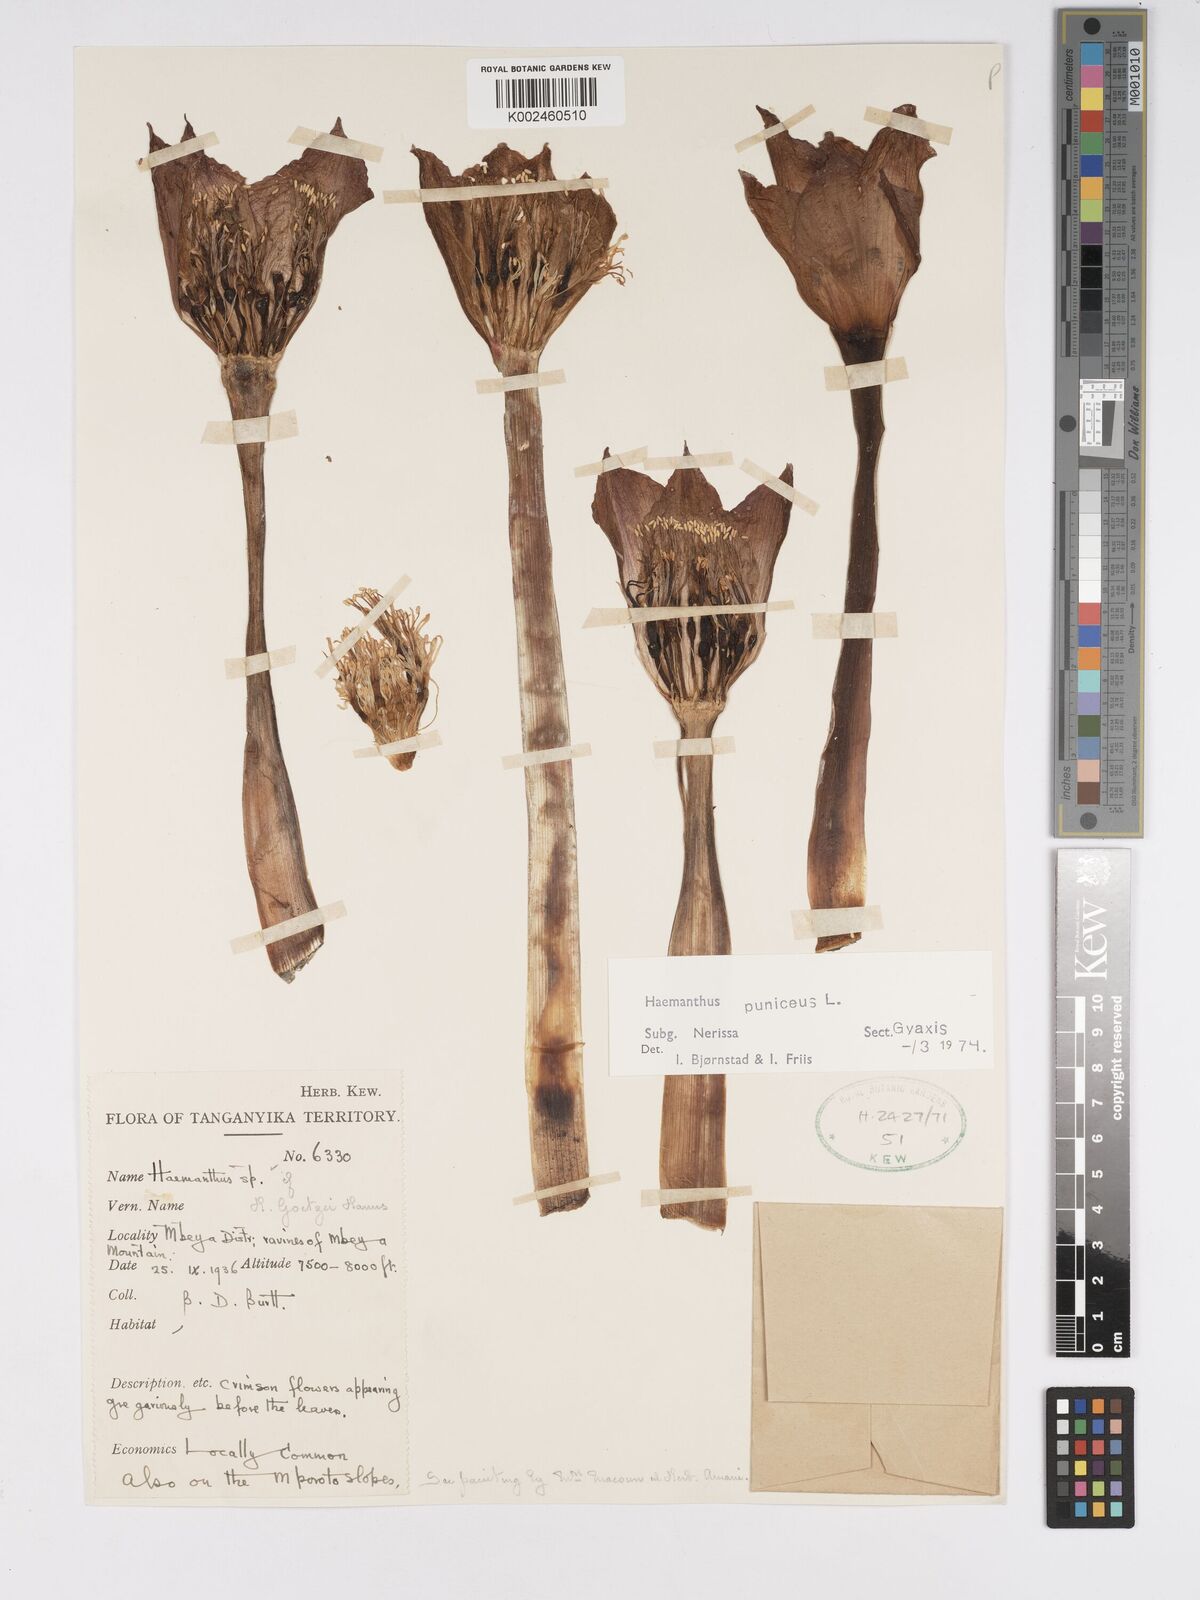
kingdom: Plantae
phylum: Tracheophyta
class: Liliopsida
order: Asparagales
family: Amaryllidaceae
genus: Scadoxus
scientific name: Scadoxus puniceus
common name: Royal-paintbrush
